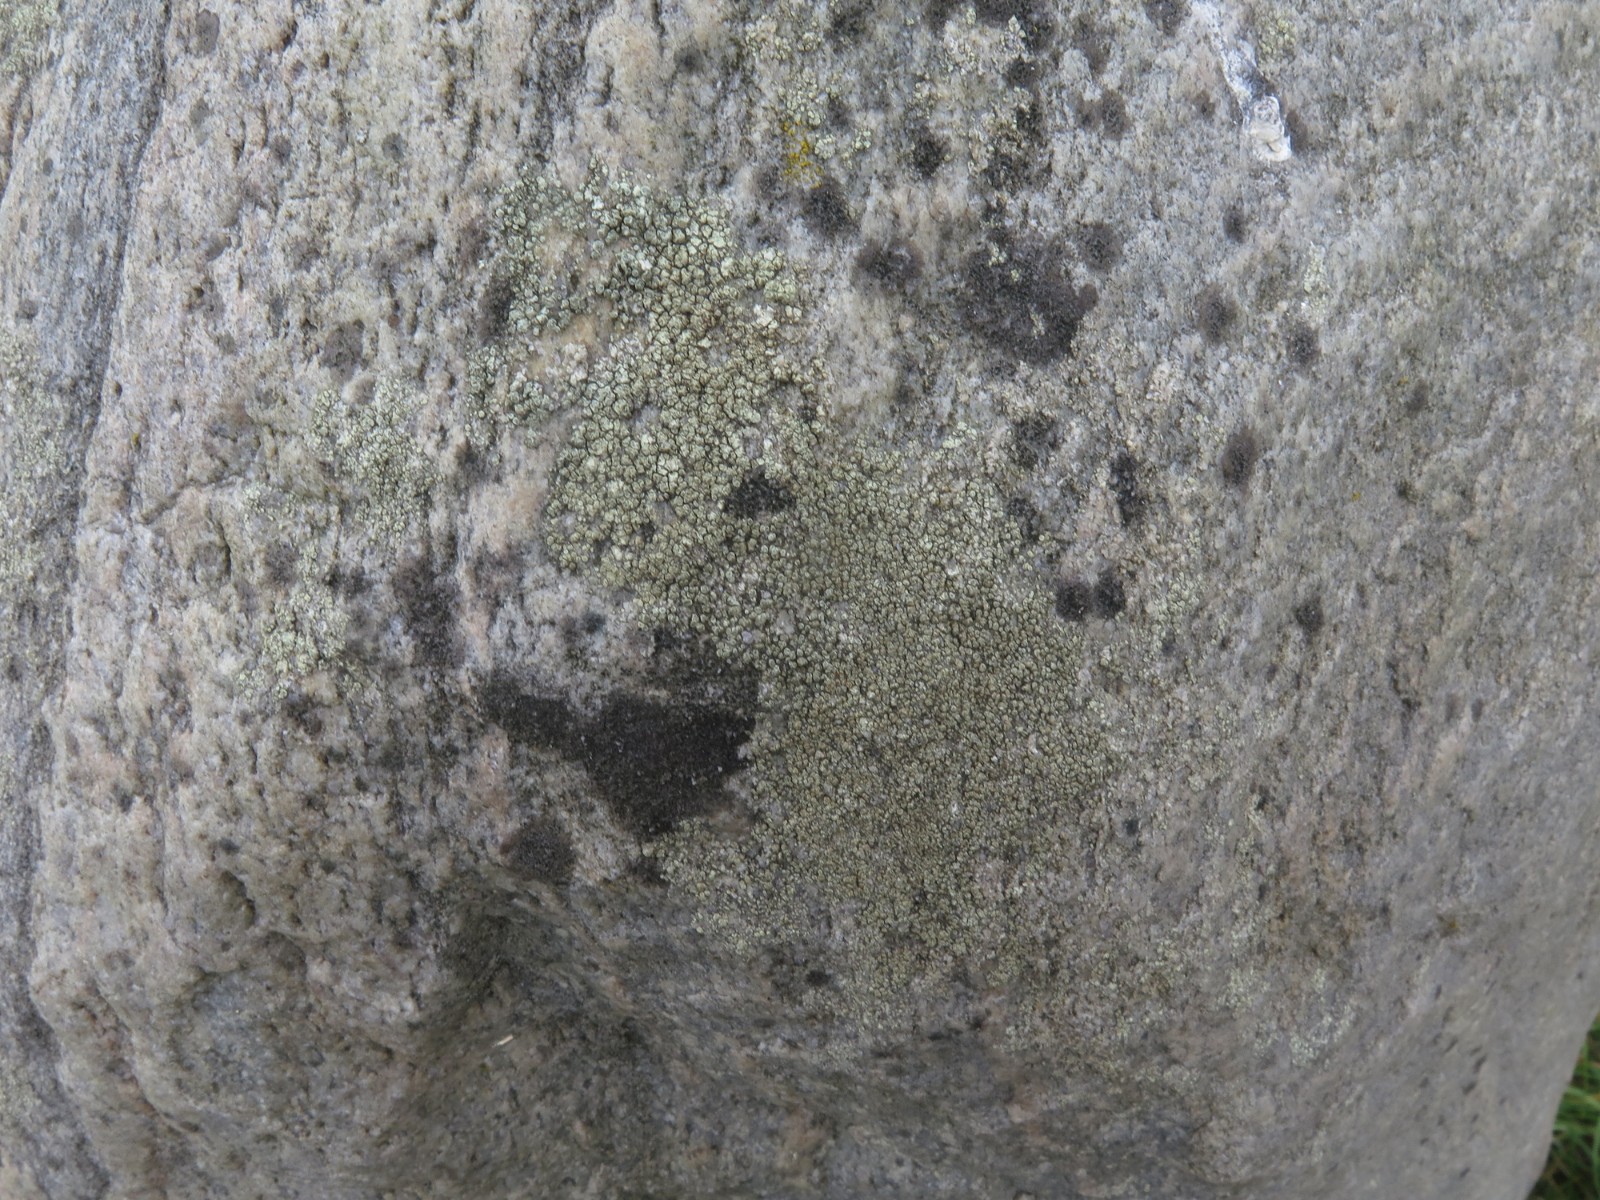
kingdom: Fungi
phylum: Ascomycota
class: Lecanoromycetes
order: Lecanorales
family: Lecanoraceae
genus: Lecanora
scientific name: Lecanora polytropa
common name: bleggrøn kantskivelav
